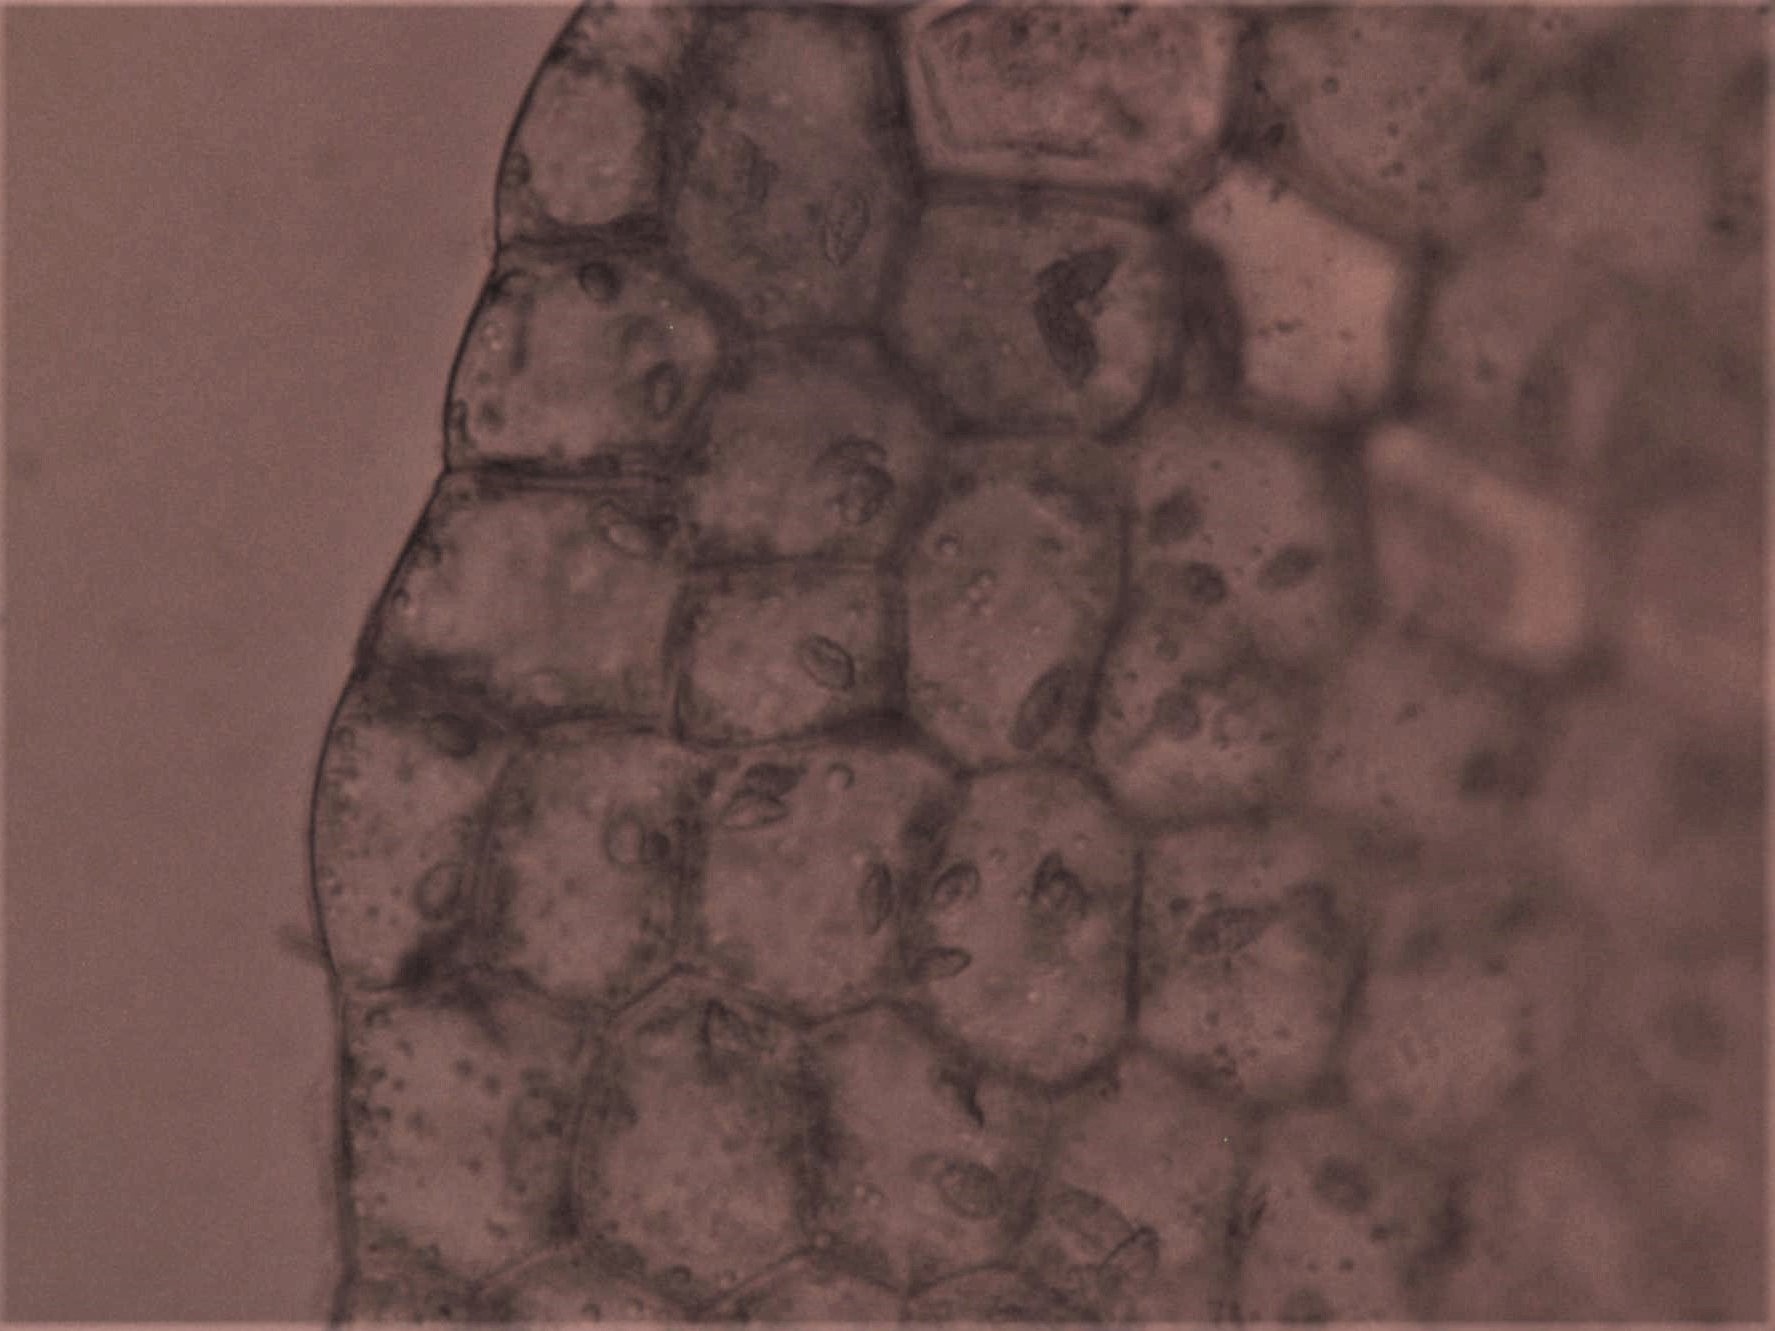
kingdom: Plantae
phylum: Marchantiophyta
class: Jungermanniopsida
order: Jungermanniales
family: Lophocoleaceae
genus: Chiloscyphus
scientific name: Chiloscyphus pallescens
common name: Bleg læbemund
